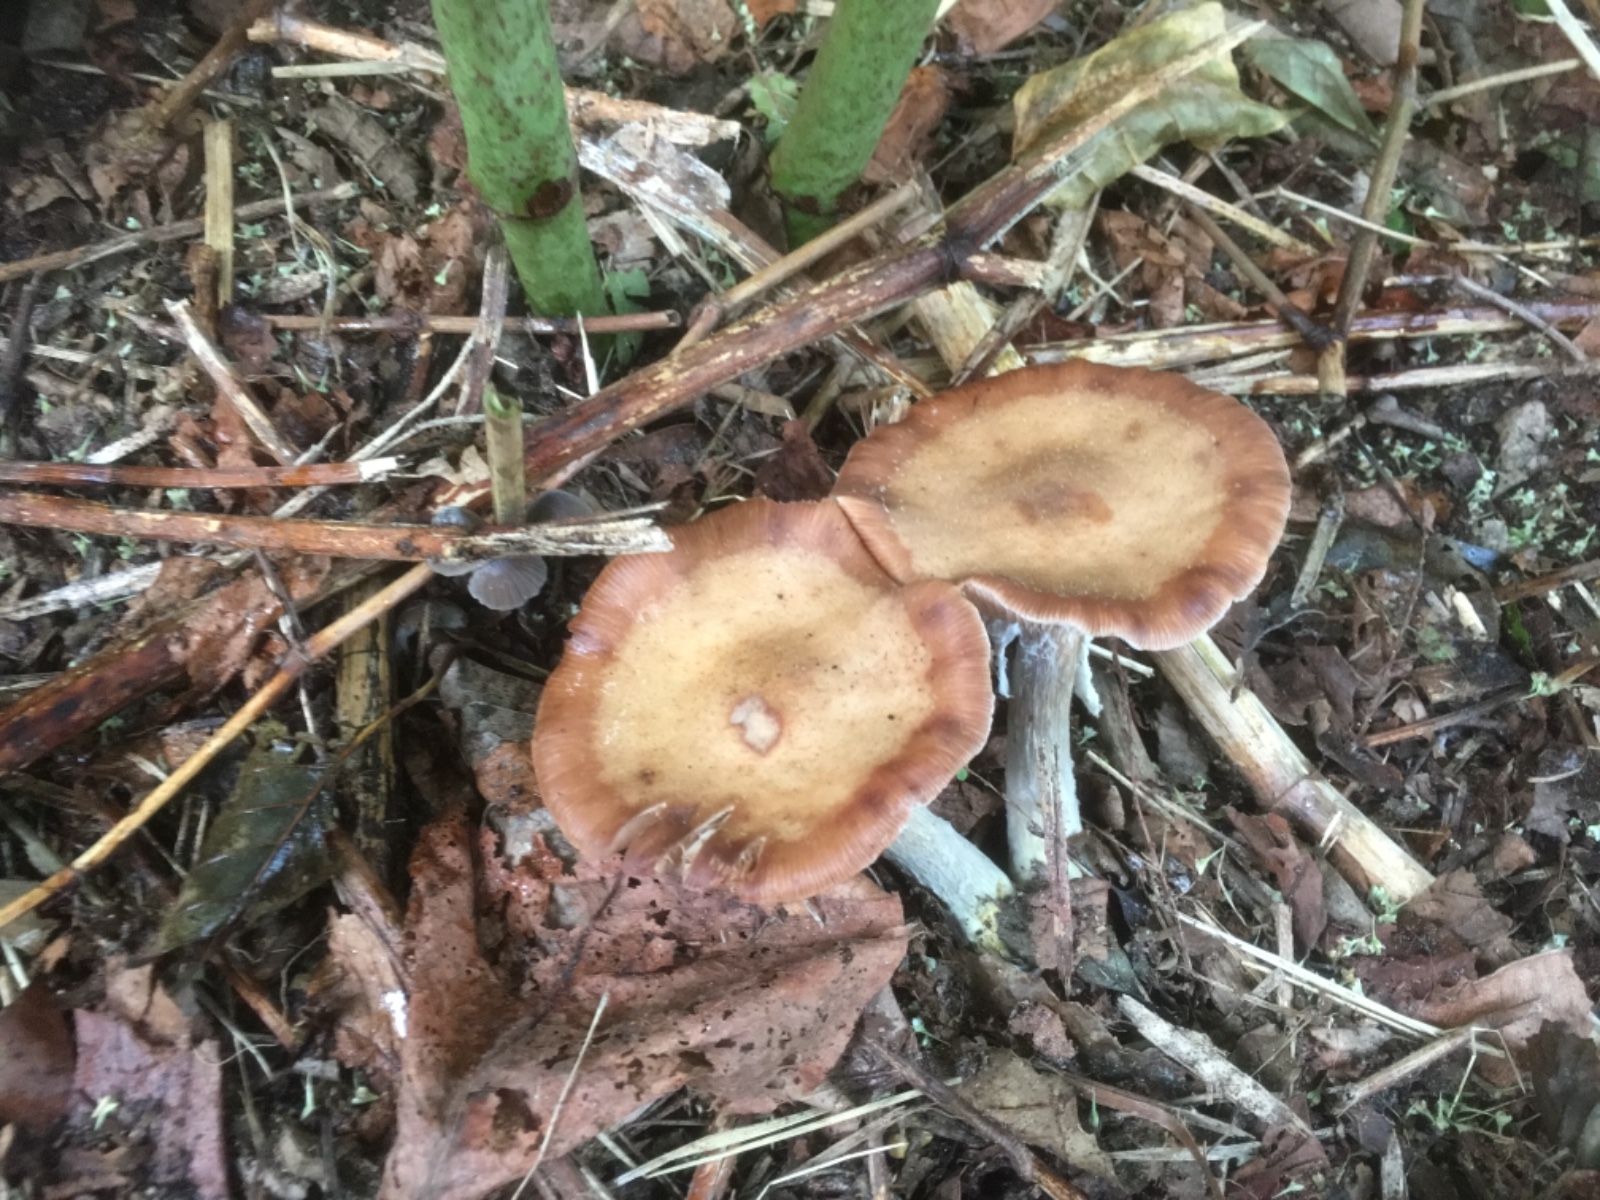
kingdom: Fungi
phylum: Basidiomycota
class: Agaricomycetes
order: Agaricales
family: Physalacriaceae
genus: Armillaria
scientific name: Armillaria
